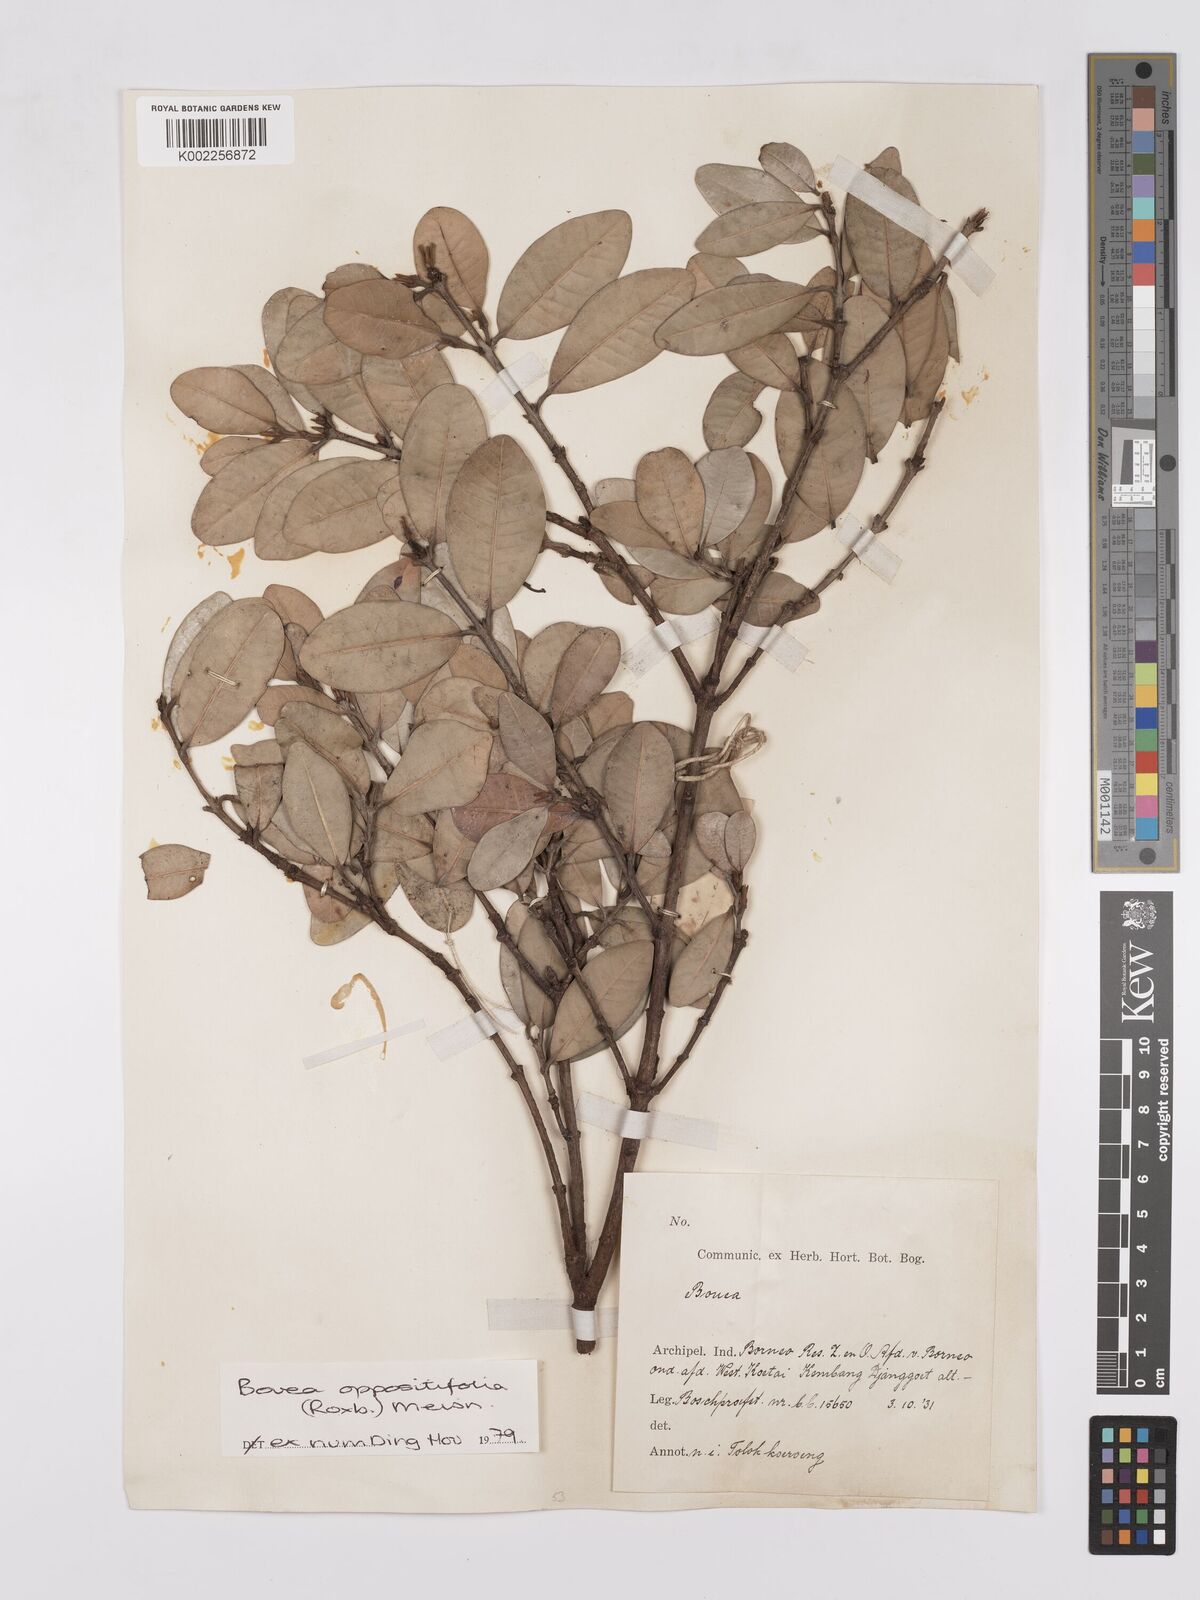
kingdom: Plantae
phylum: Tracheophyta
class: Magnoliopsida
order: Sapindales
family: Anacardiaceae
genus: Bouea
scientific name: Bouea oppositifolia
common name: Narrow-leaved kundang
